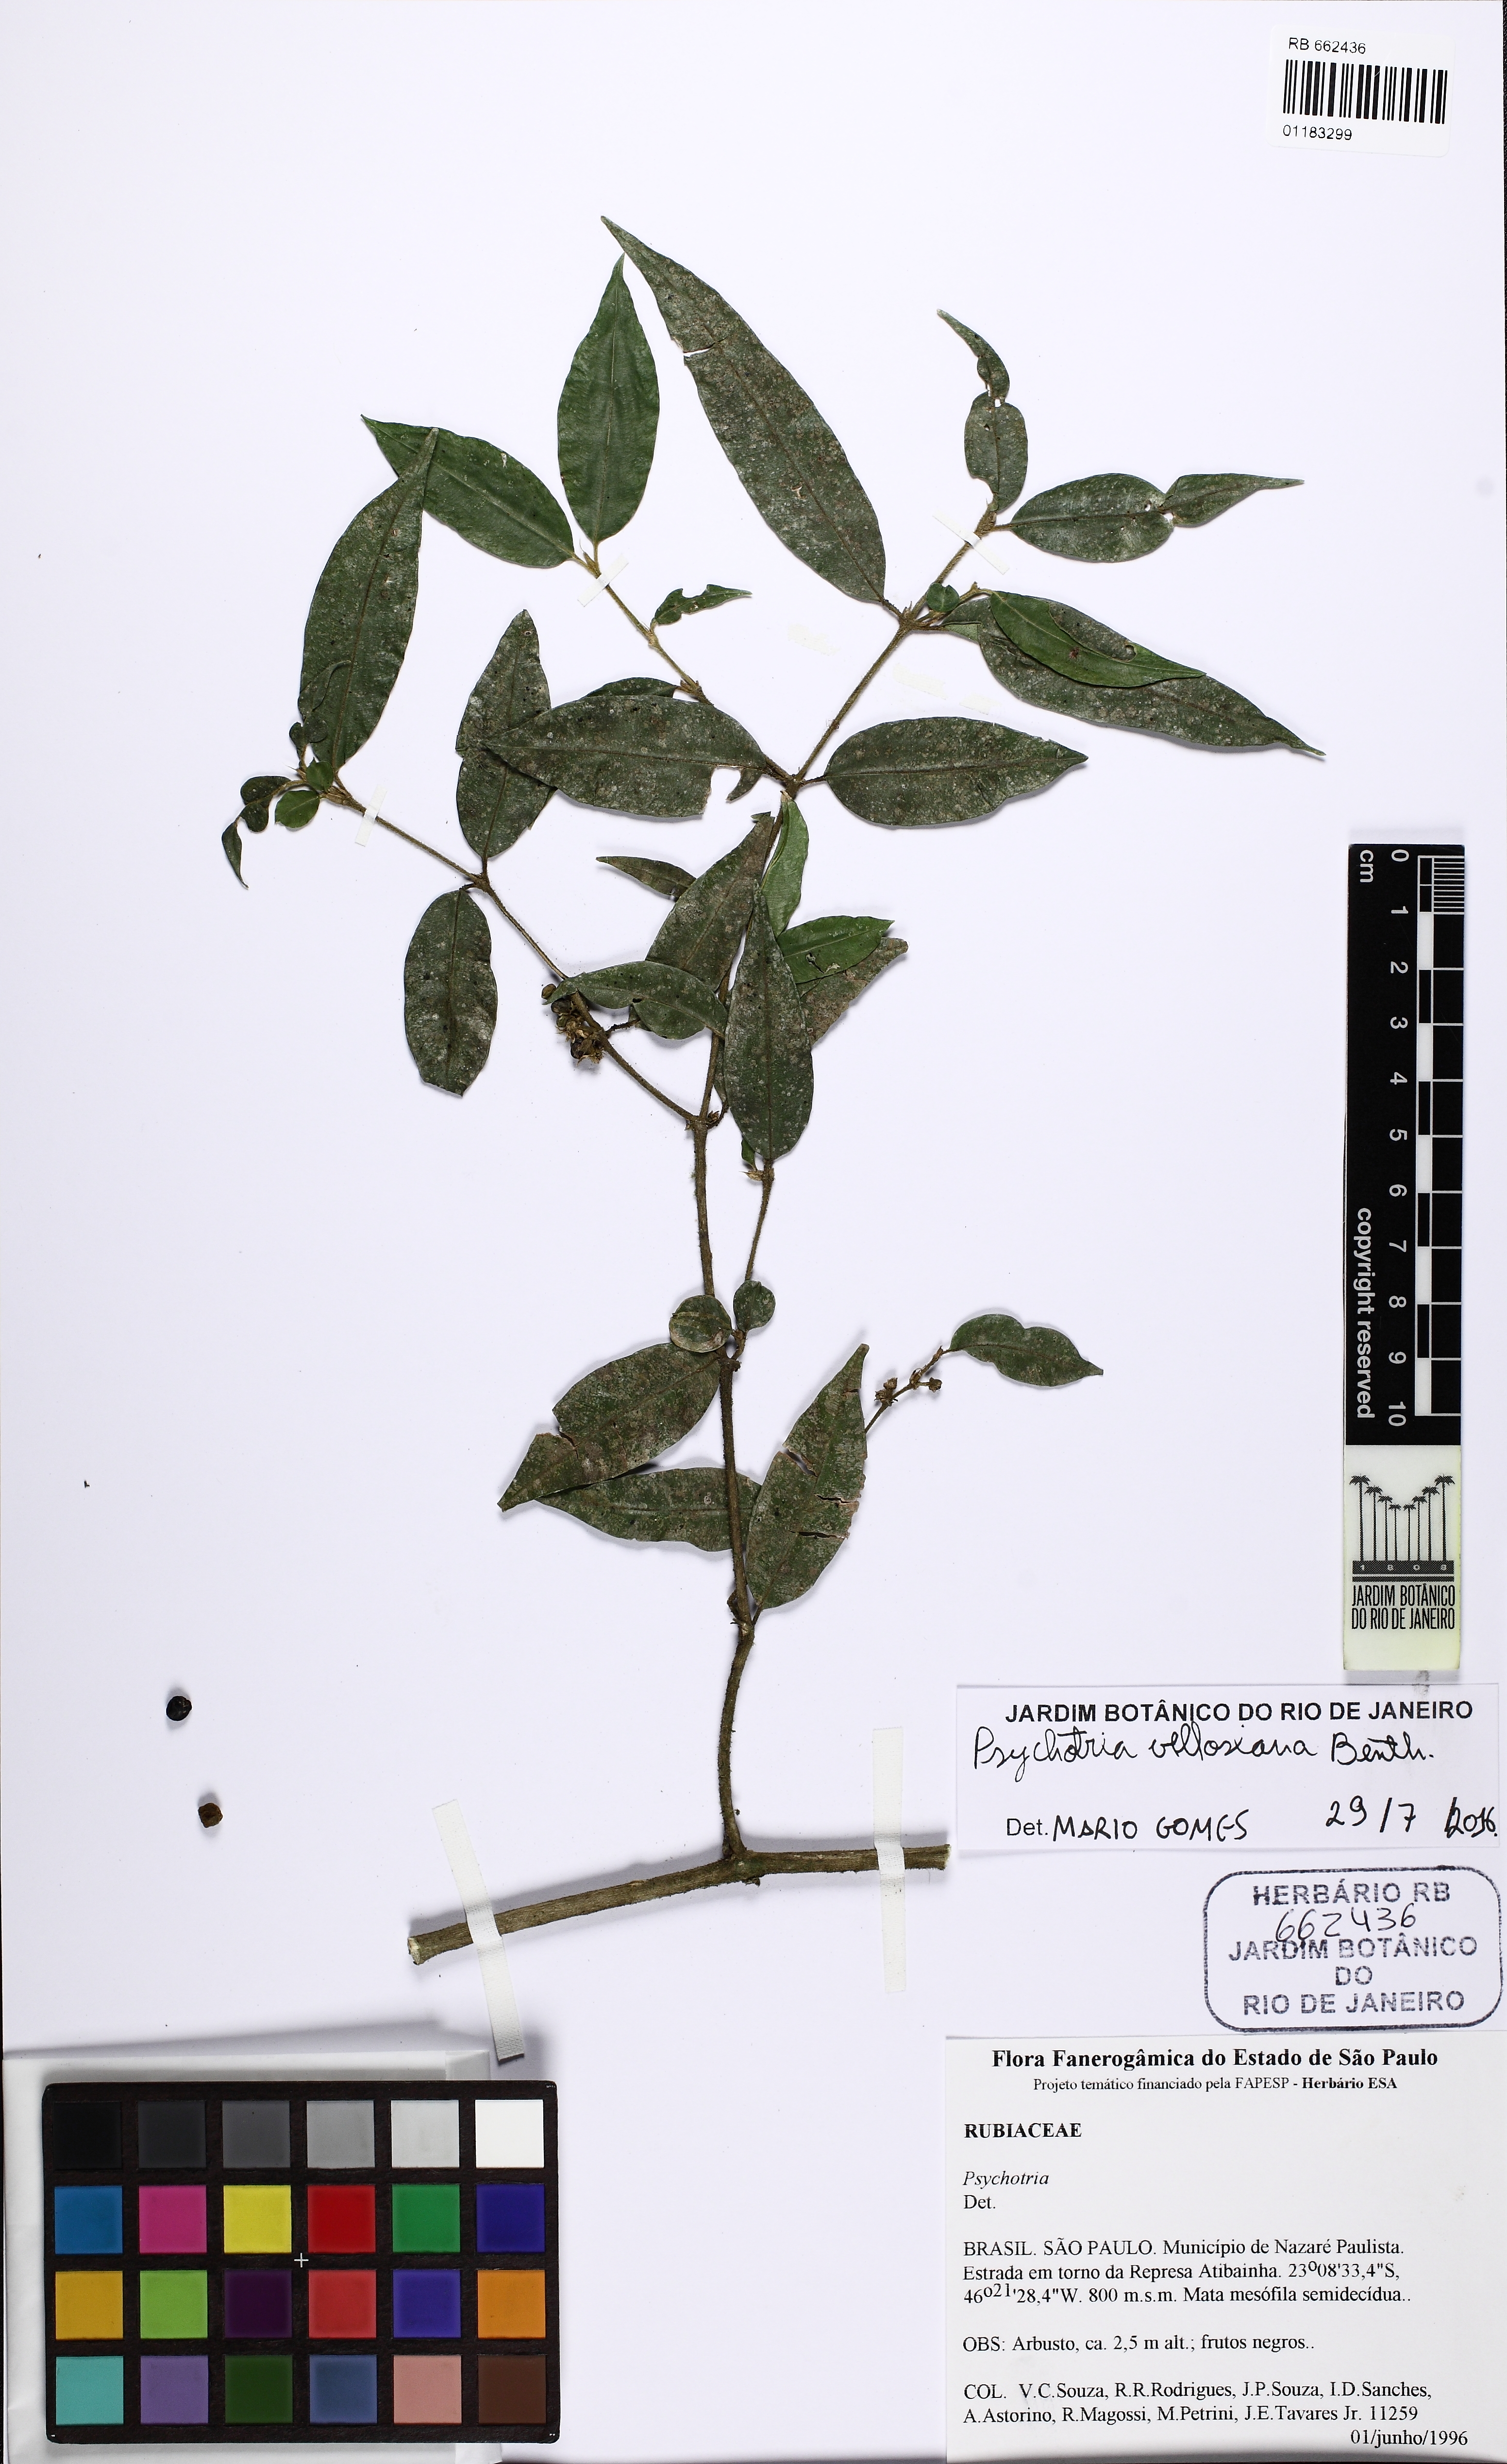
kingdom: Plantae
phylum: Tracheophyta
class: Magnoliopsida
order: Gentianales
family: Rubiaceae
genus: Palicourea
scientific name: Palicourea sessilis
